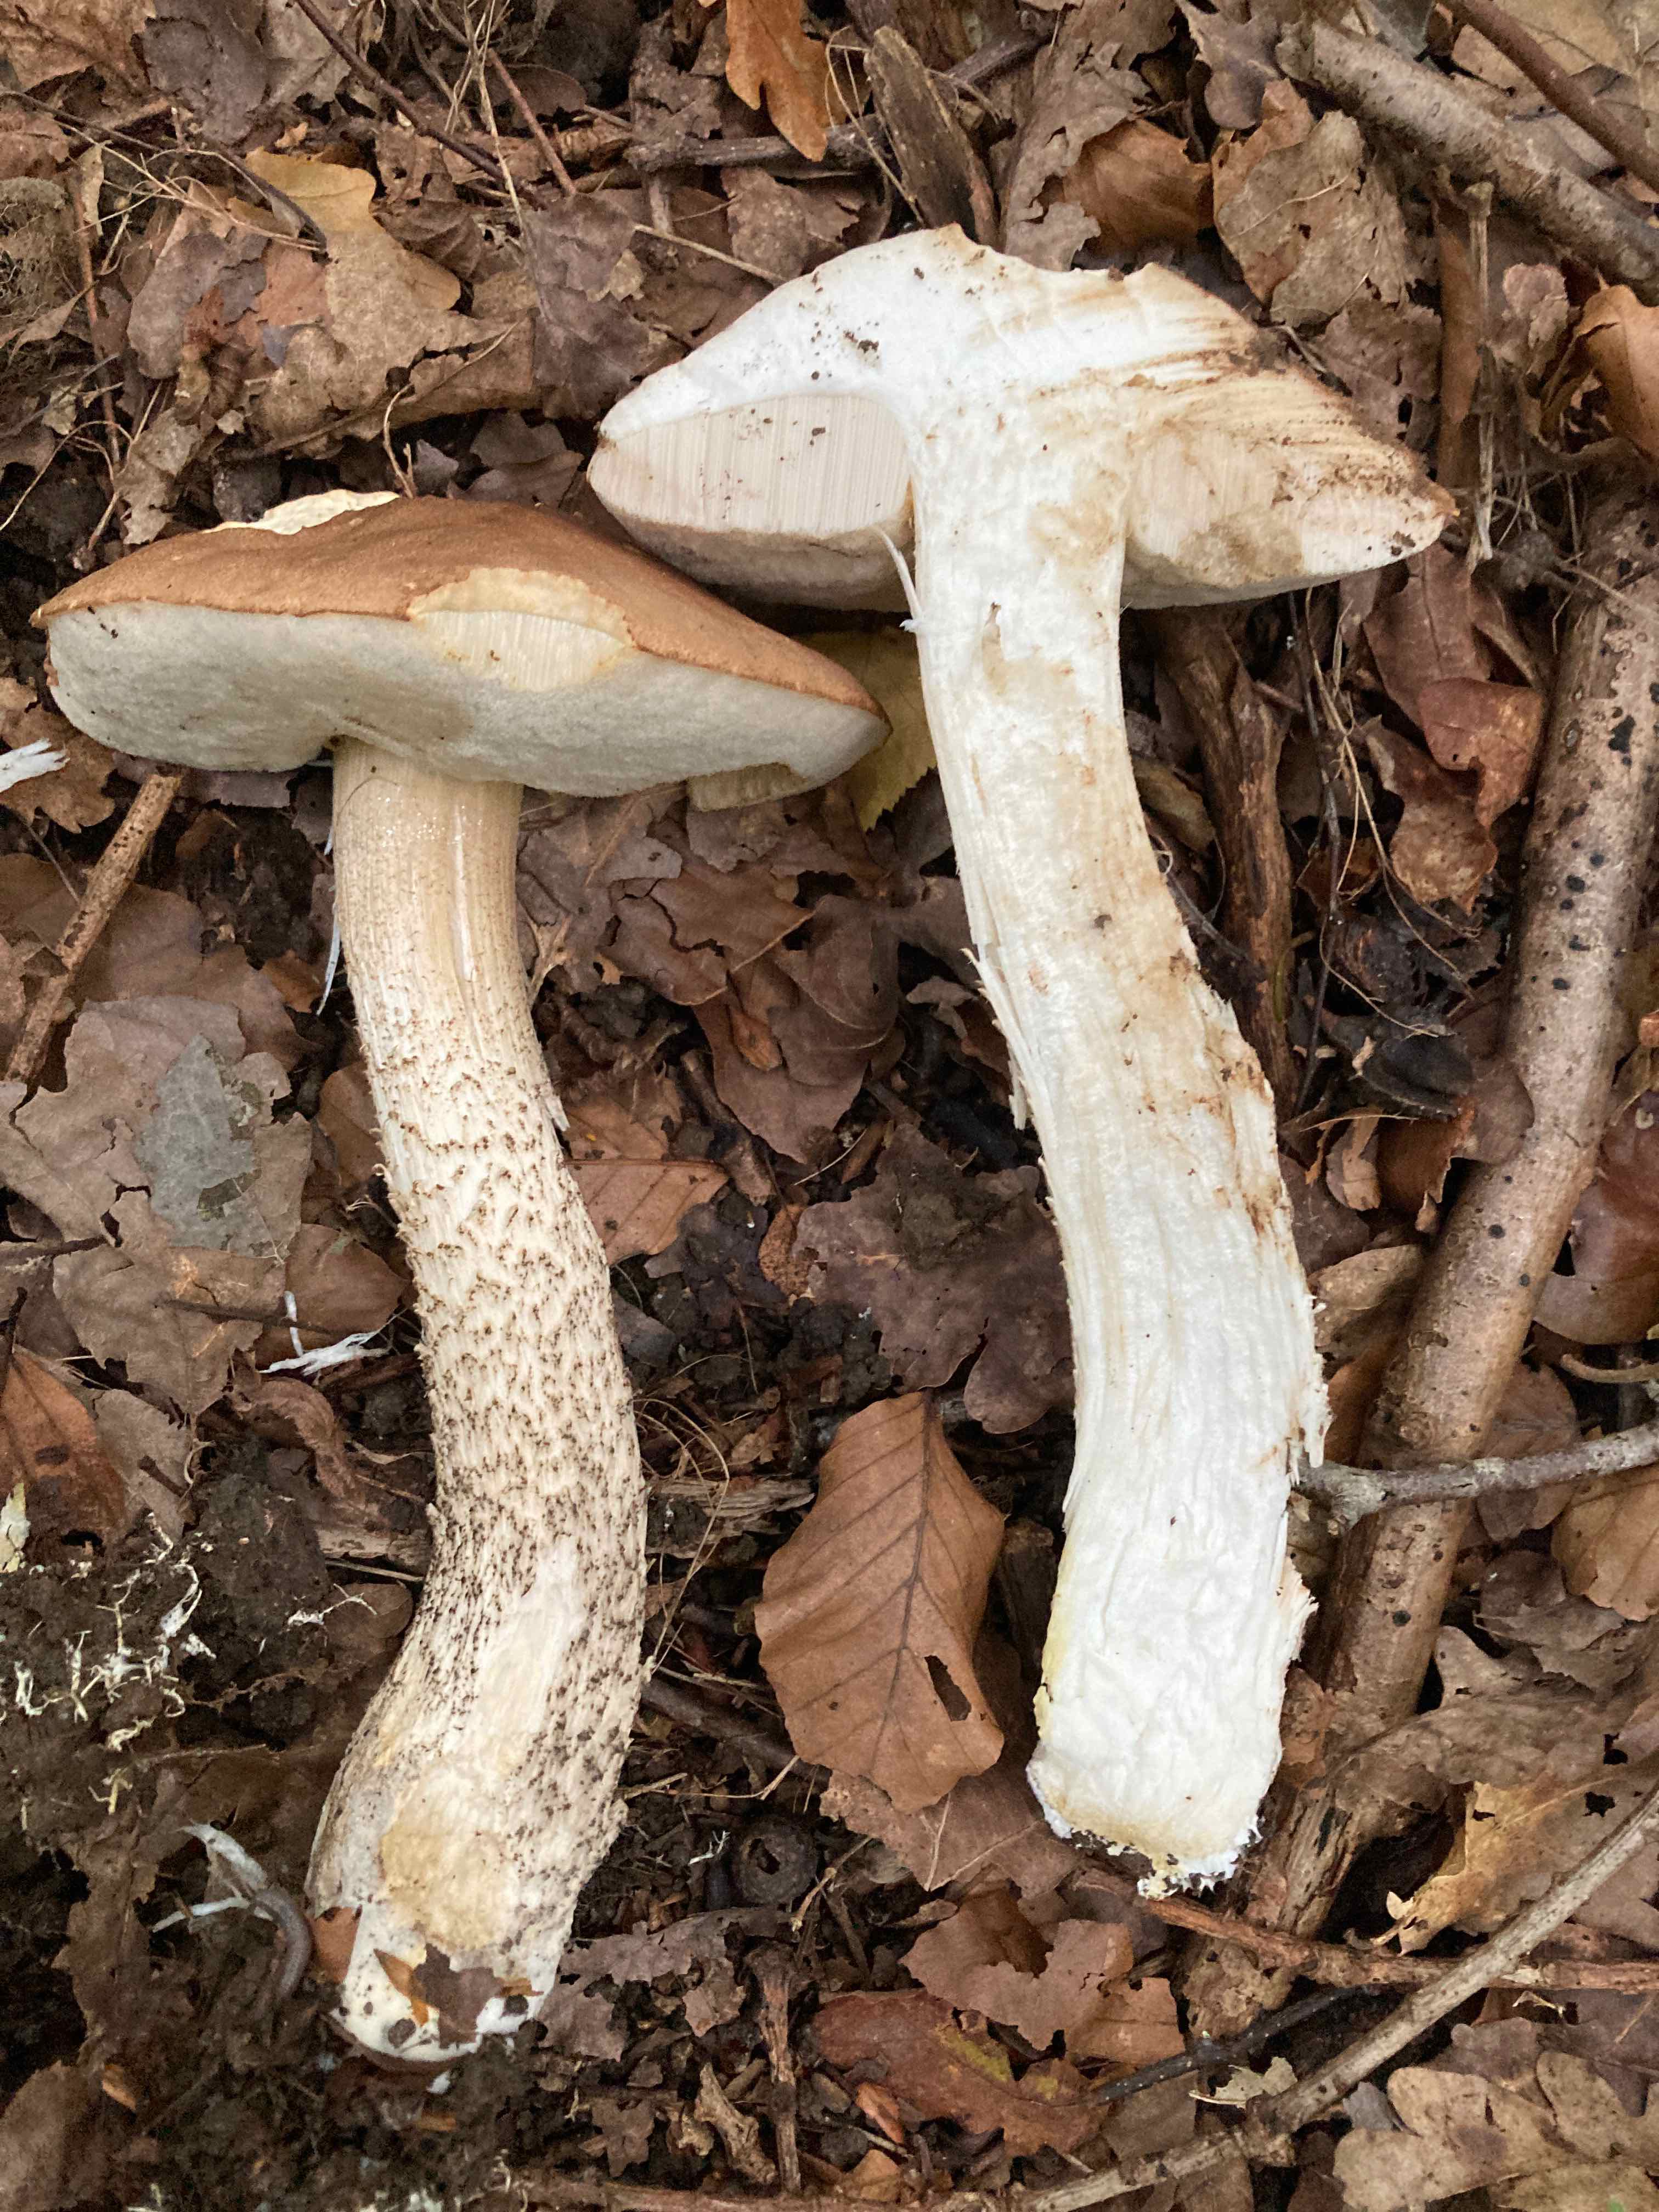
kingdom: Fungi
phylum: Basidiomycota
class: Agaricomycetes
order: Boletales
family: Boletaceae
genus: Leccinum
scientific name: Leccinum scabrum
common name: brun skælrørhat
